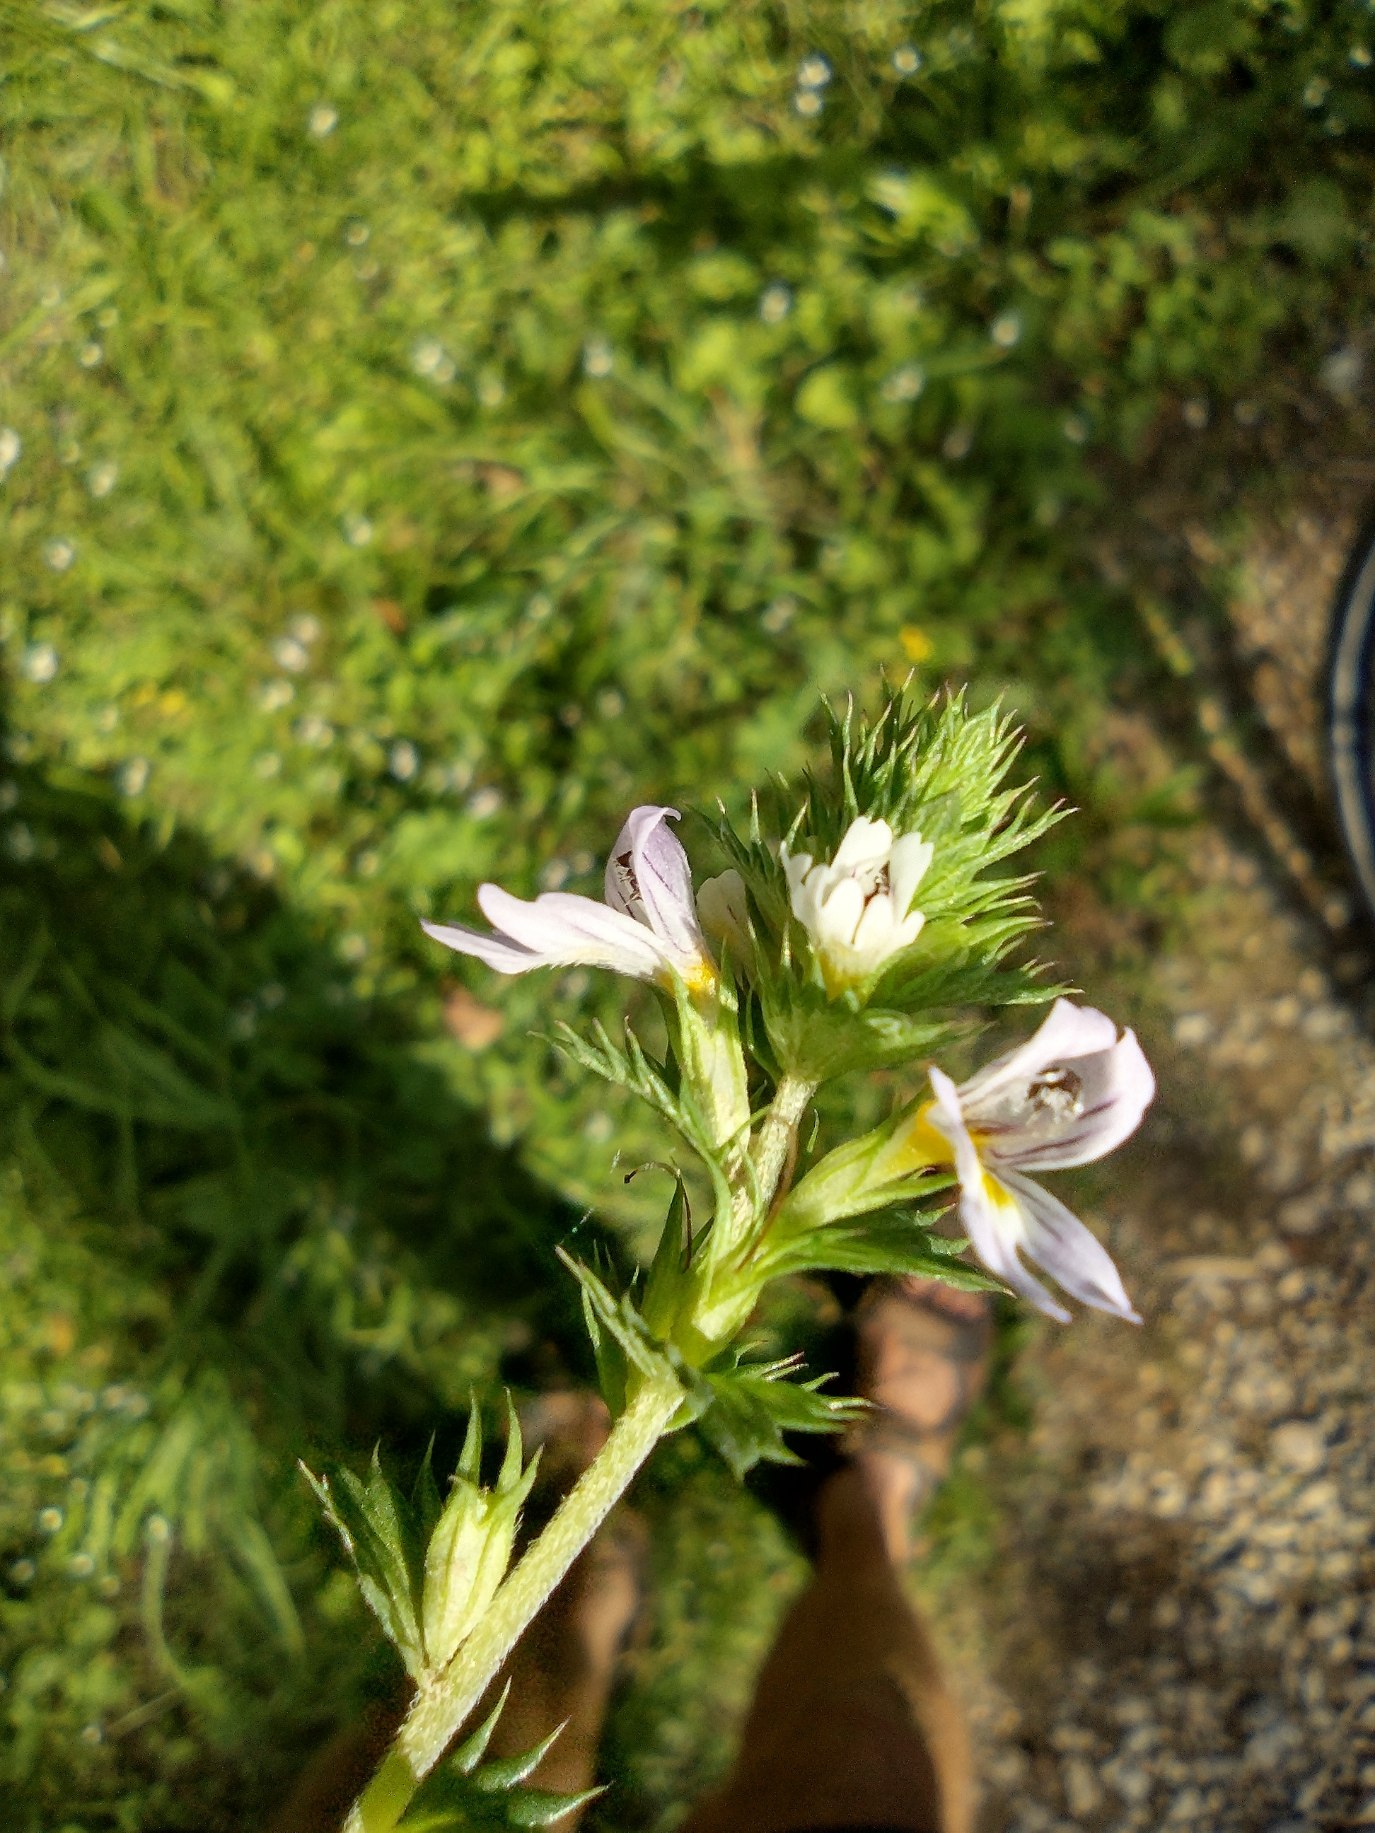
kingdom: Plantae
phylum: Tracheophyta
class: Magnoliopsida
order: Lamiales
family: Orobanchaceae
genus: Euphrasia
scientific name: Euphrasia stricta
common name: Spids øjentrøst
